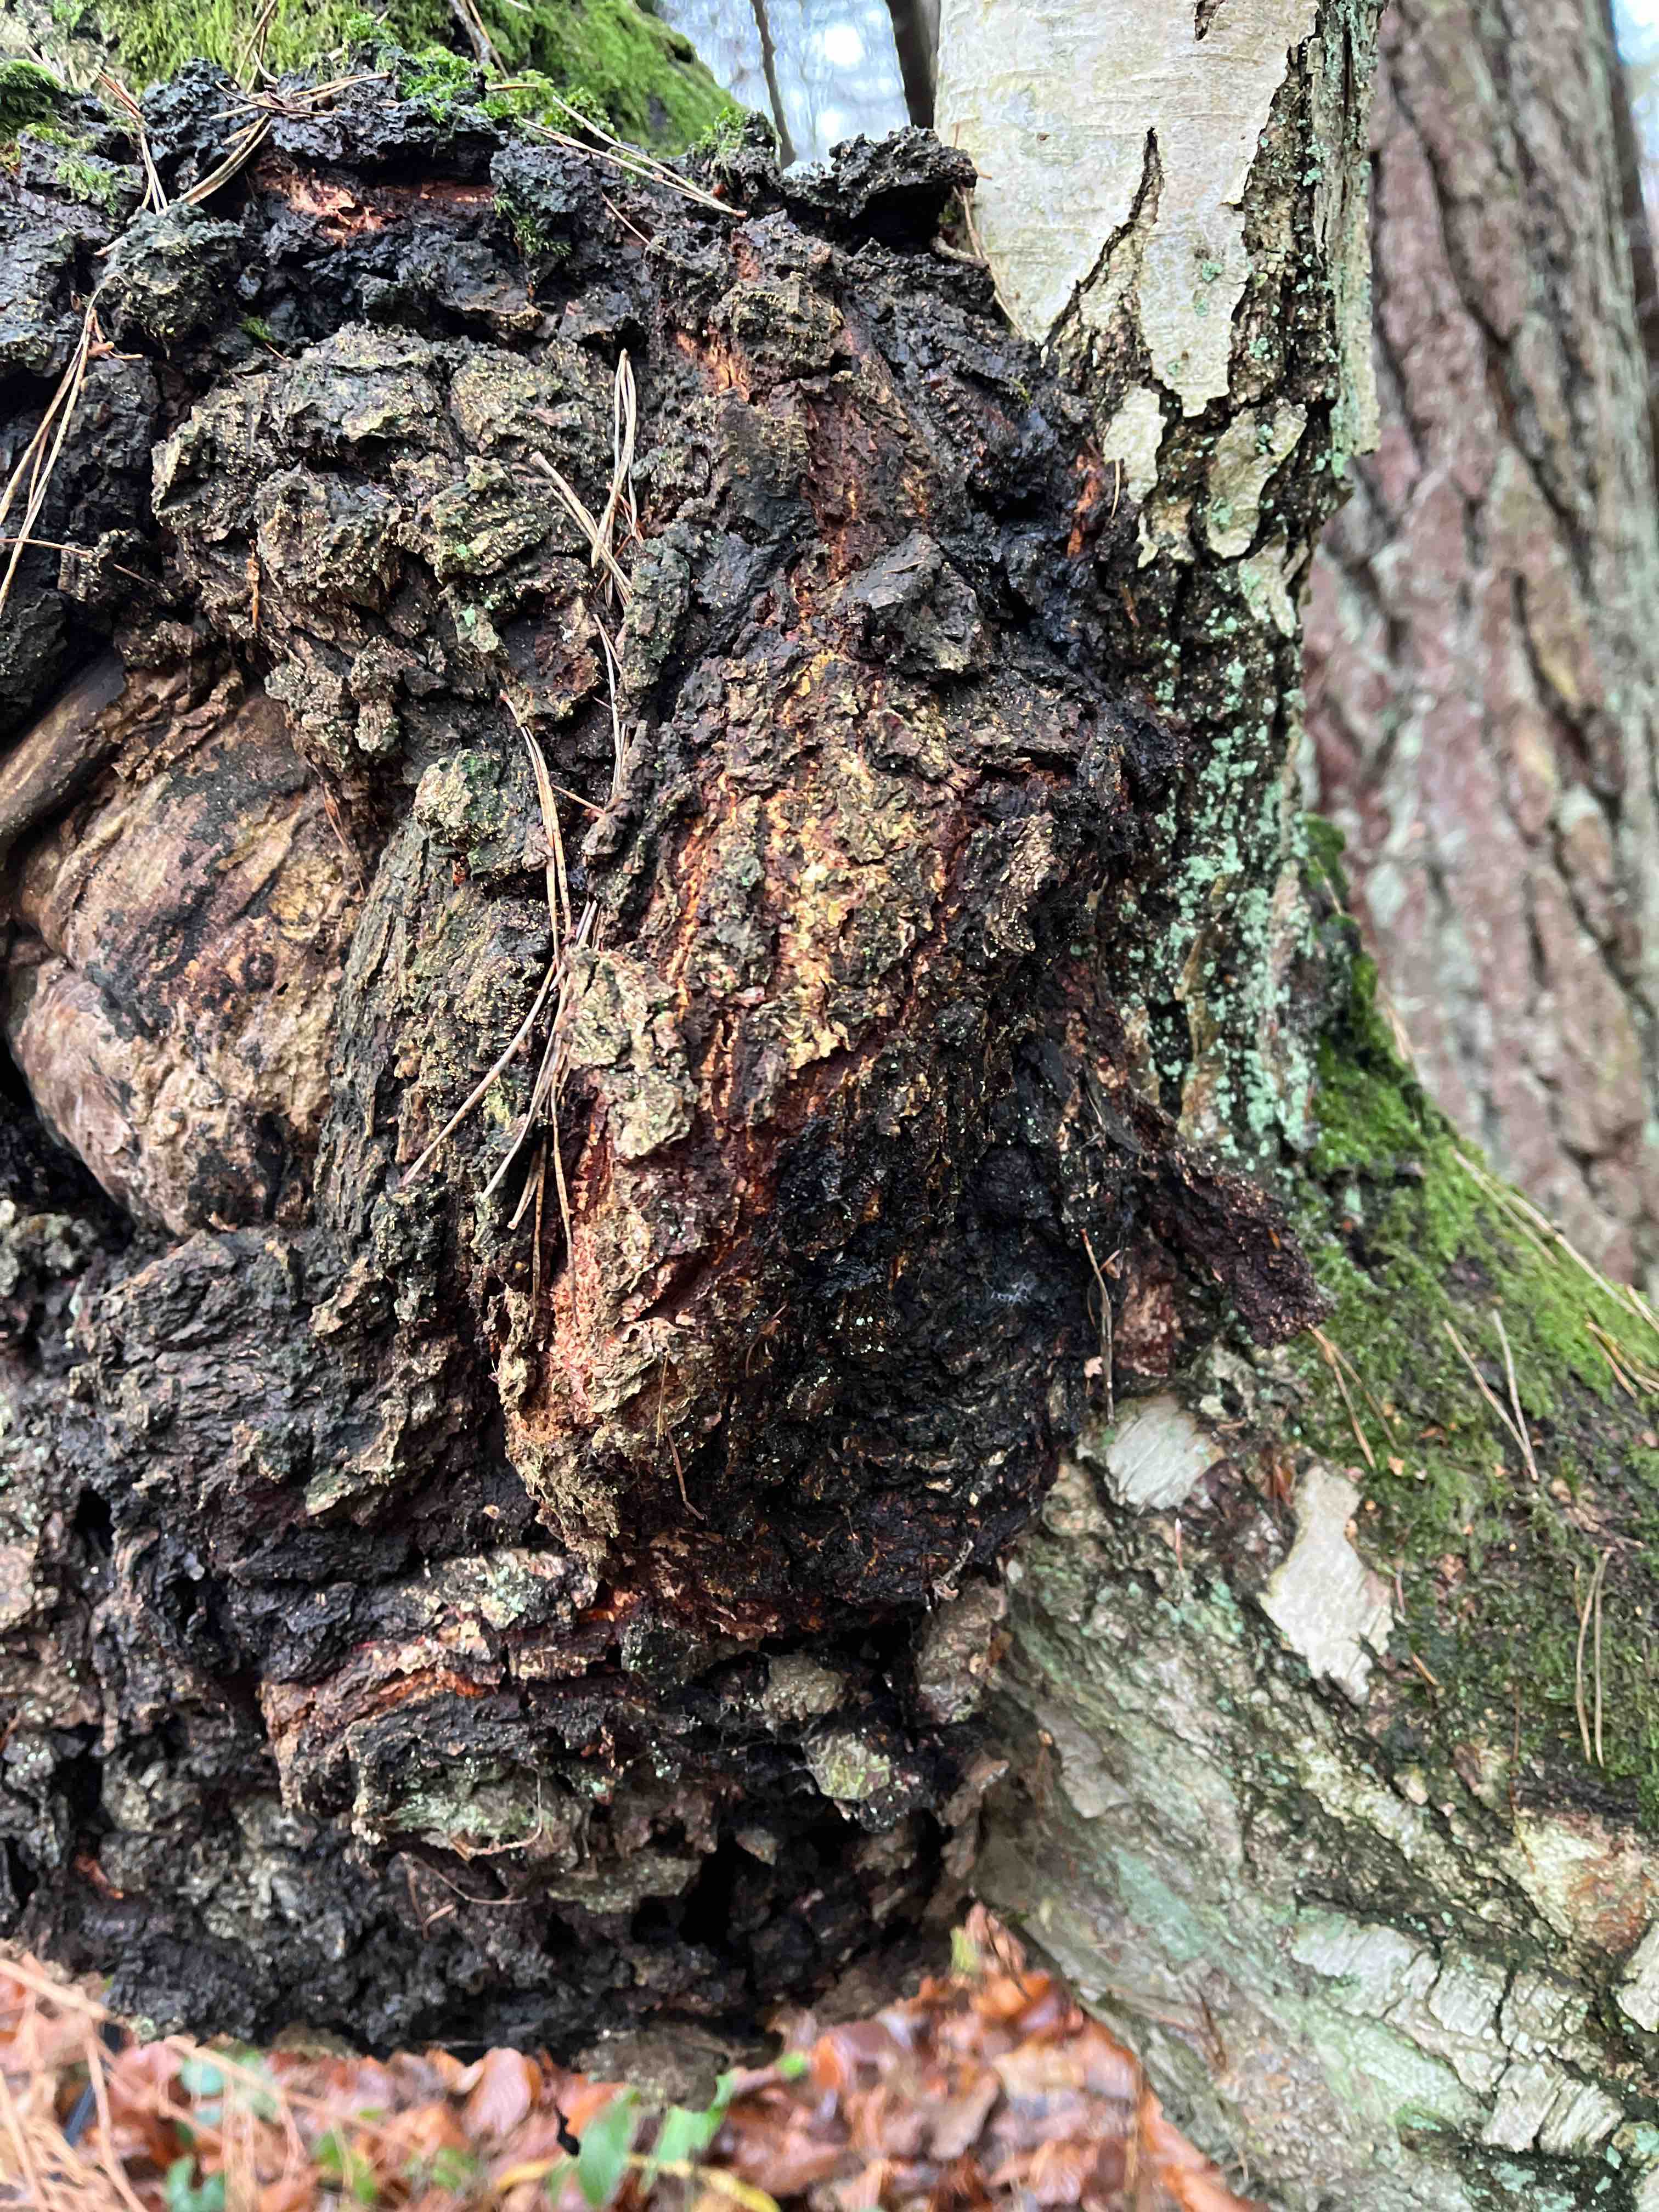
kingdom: Fungi
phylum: Basidiomycota
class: Agaricomycetes
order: Hymenochaetales
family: Hymenochaetaceae
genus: Inonotus
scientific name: Inonotus obliquus
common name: birke-spejlporesvamp
